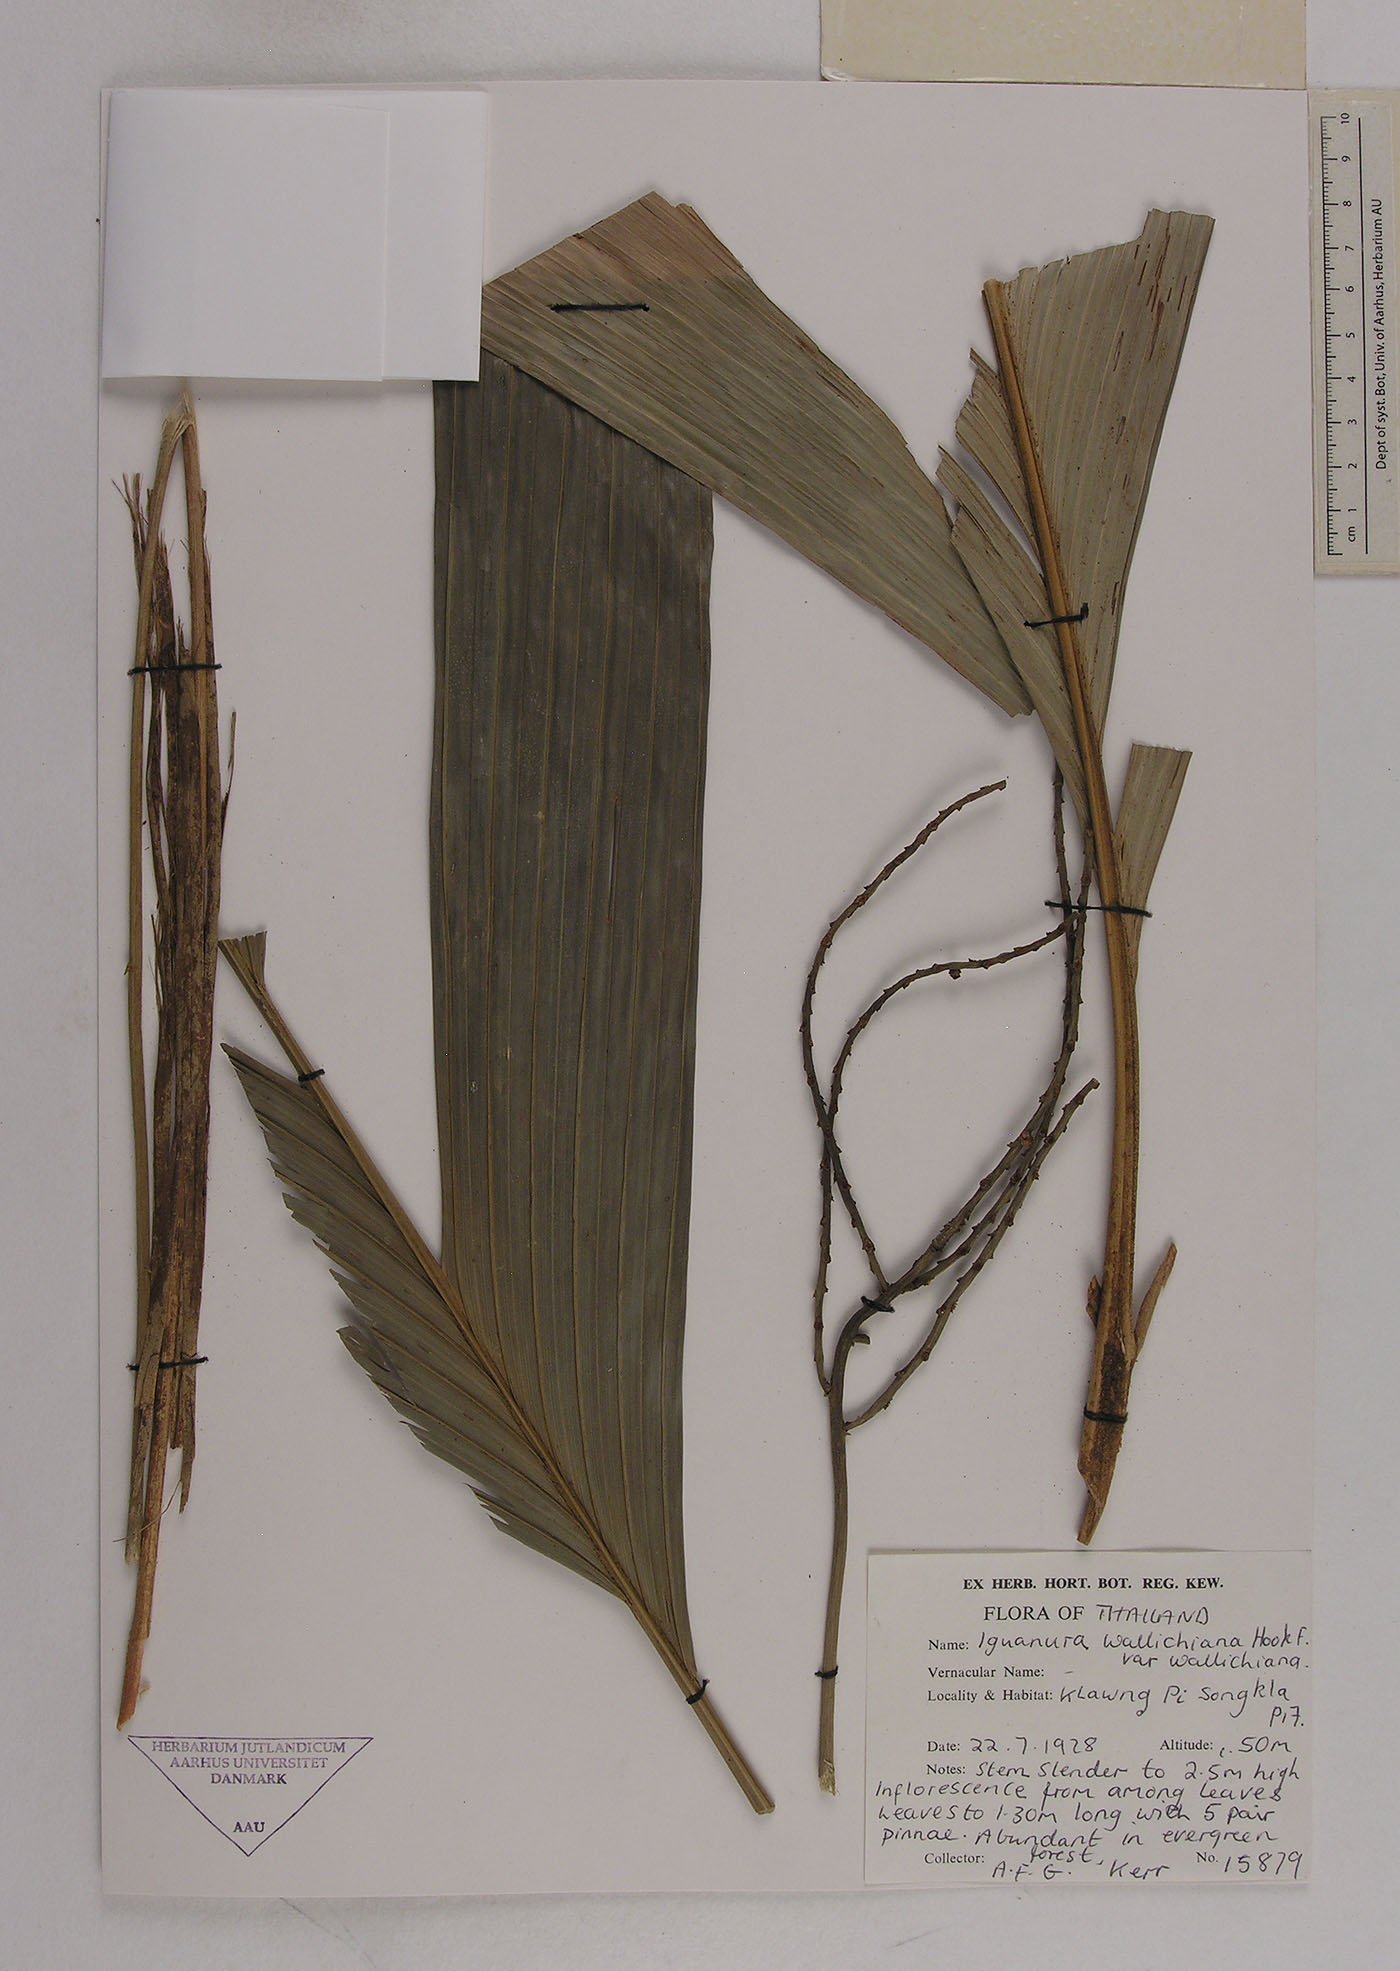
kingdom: Plantae
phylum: Tracheophyta
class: Liliopsida
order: Arecales
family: Arecaceae
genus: Iguanura
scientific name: Iguanura wallichiana
